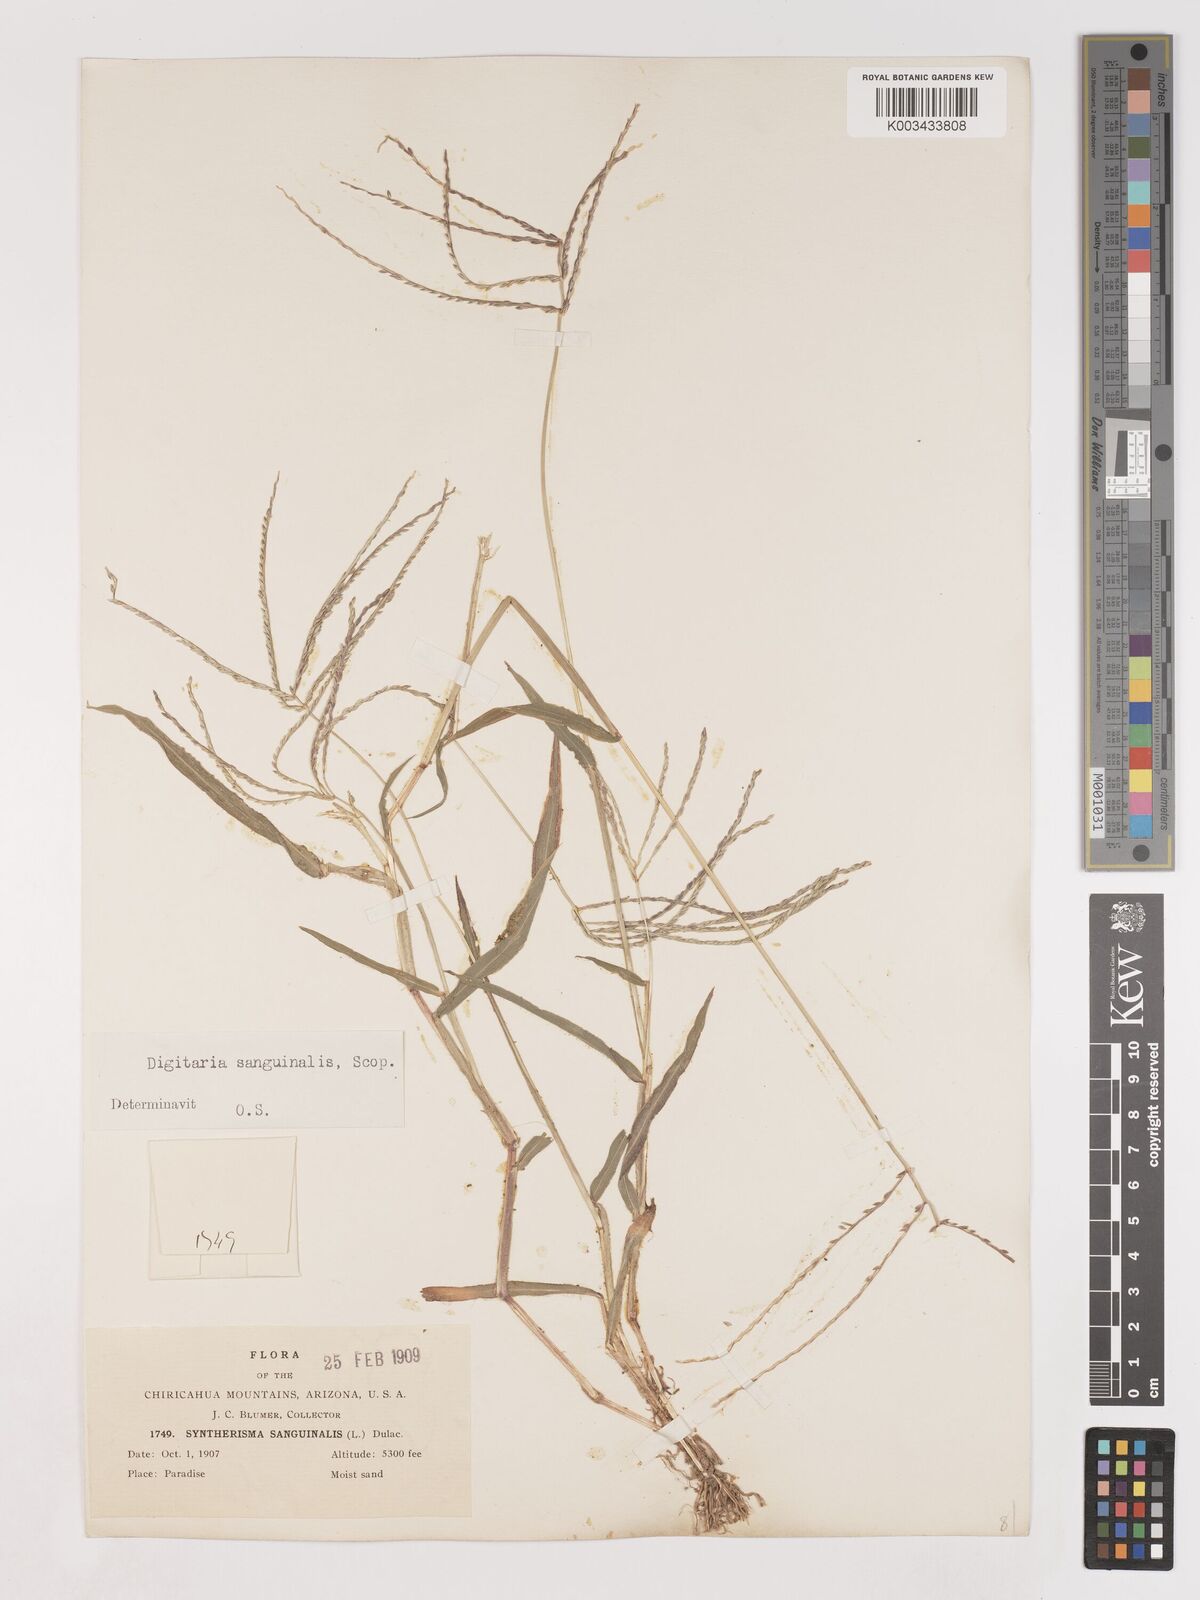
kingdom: Plantae
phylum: Tracheophyta
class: Liliopsida
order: Poales
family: Poaceae
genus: Digitaria
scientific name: Digitaria sanguinalis
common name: Hairy crabgrass
